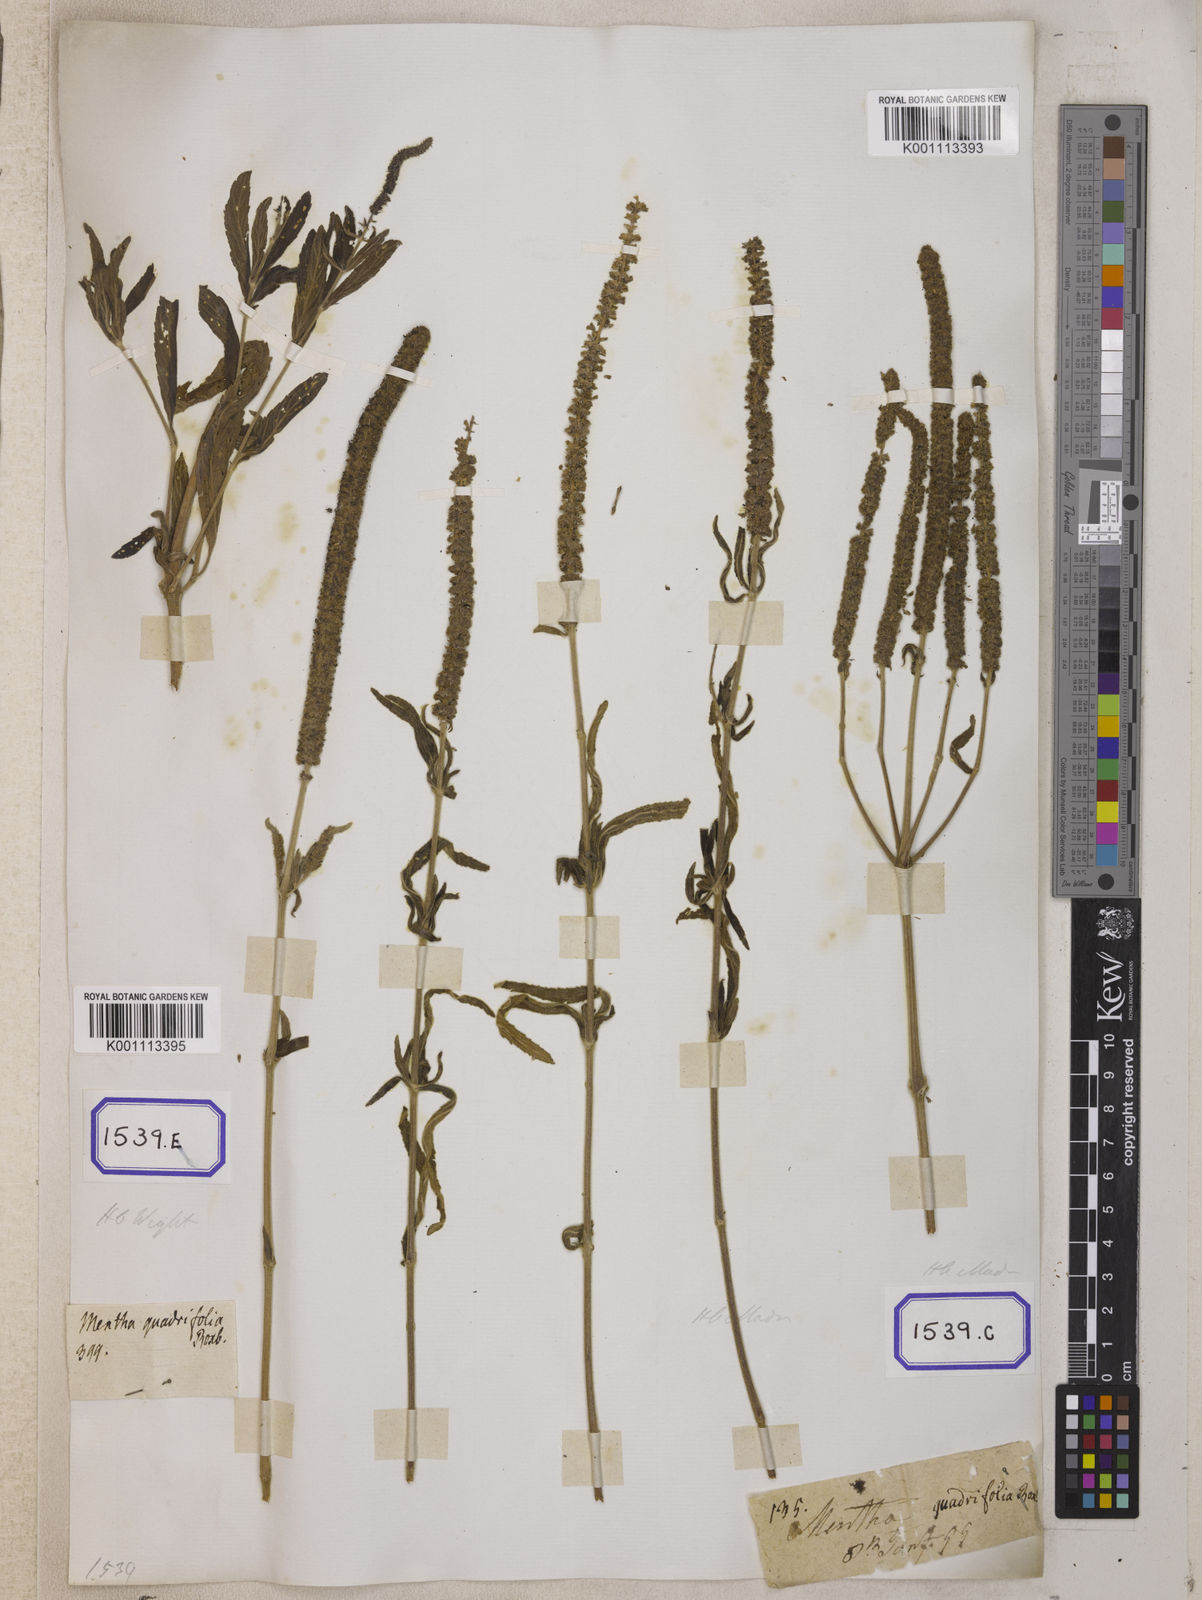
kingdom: Plantae
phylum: Tracheophyta
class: Magnoliopsida
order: Lamiales
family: Lamiaceae
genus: Pogostemon
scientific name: Pogostemon quadrifolius
